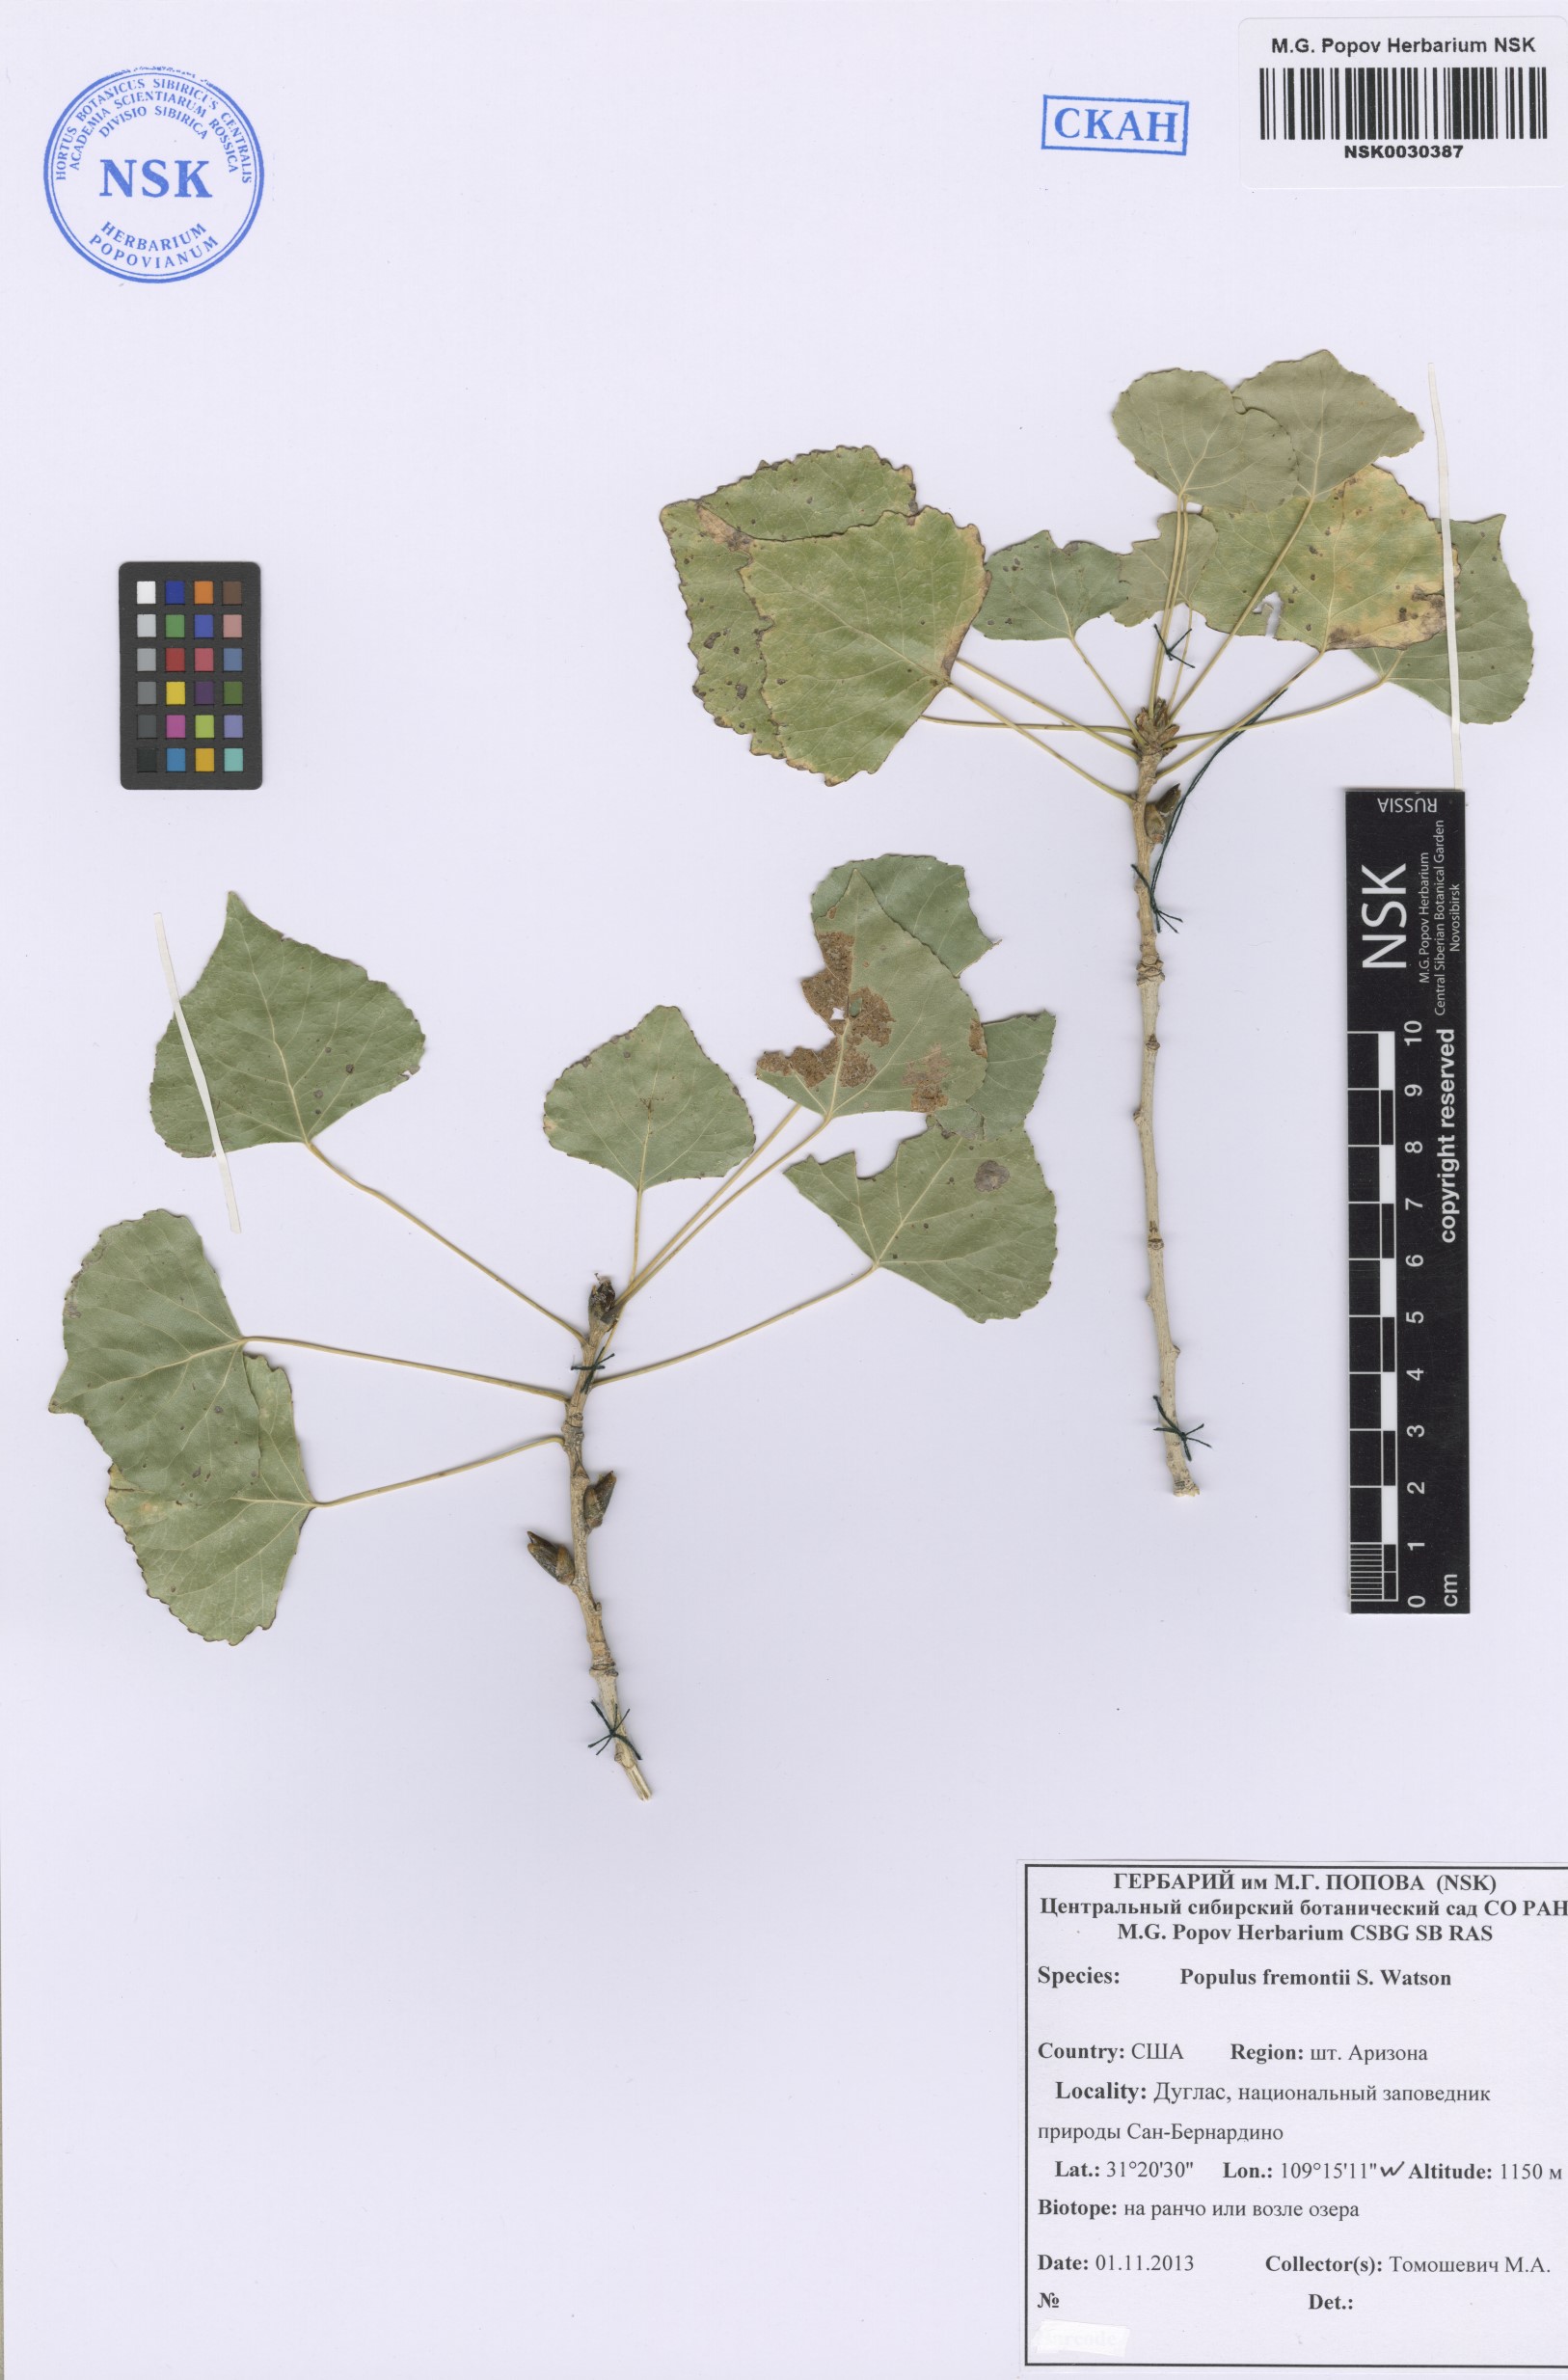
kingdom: Plantae
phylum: Tracheophyta
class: Magnoliopsida
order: Malpighiales
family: Salicaceae
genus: Populus
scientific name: Populus fremontii
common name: Fremont's cottonwood
